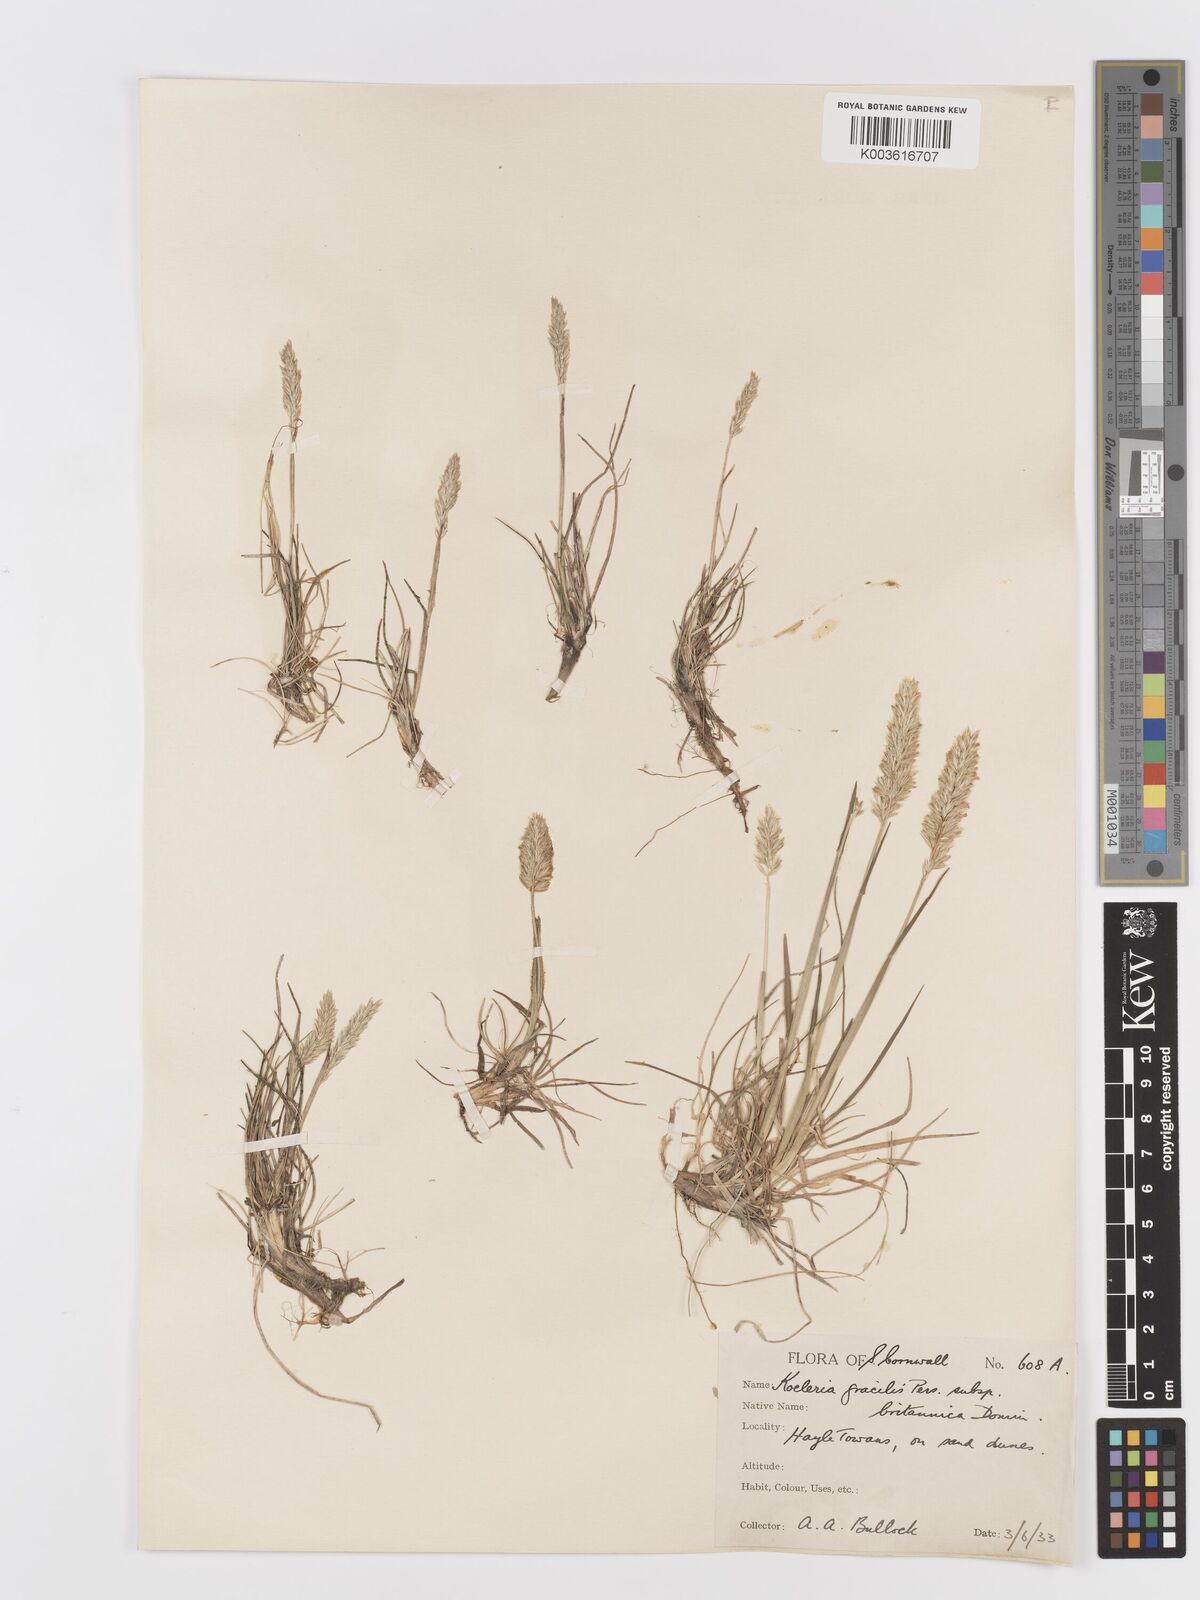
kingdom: Plantae
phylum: Tracheophyta
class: Liliopsida
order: Poales
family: Poaceae
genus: Koeleria
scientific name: Koeleria
